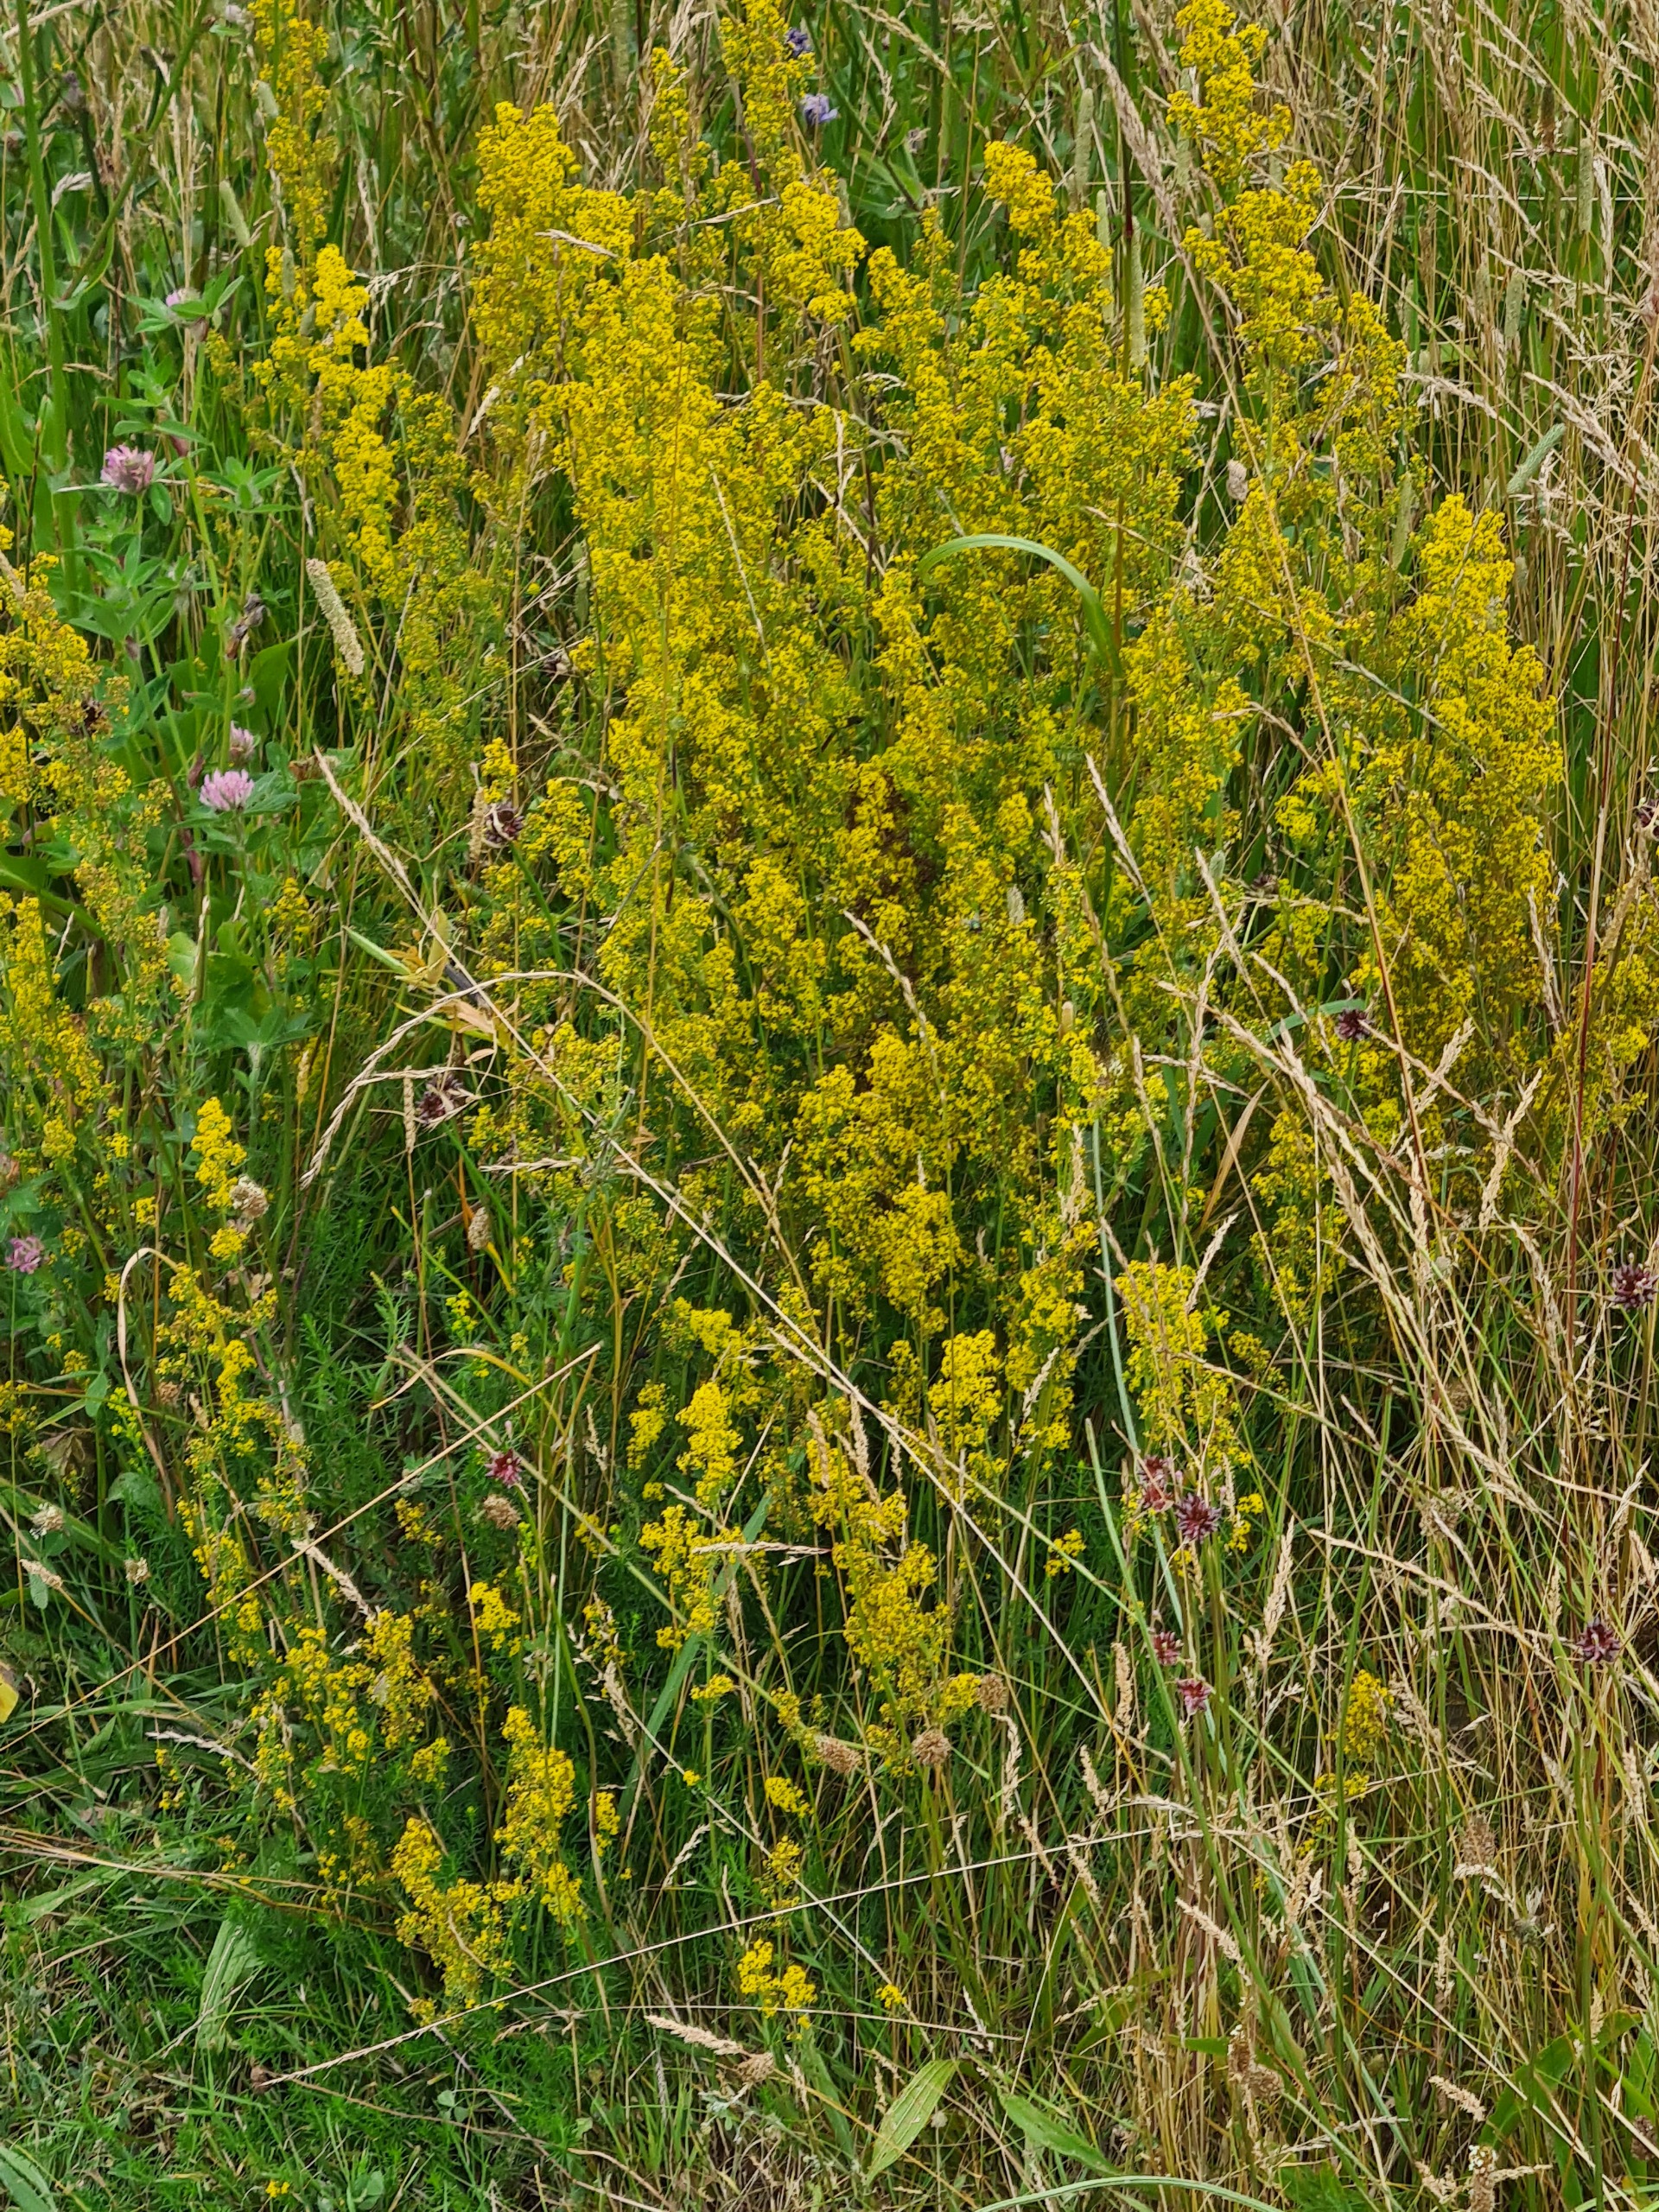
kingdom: Plantae
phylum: Tracheophyta
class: Magnoliopsida
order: Gentianales
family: Rubiaceae
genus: Galium
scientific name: Galium verum
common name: Gul snerre
